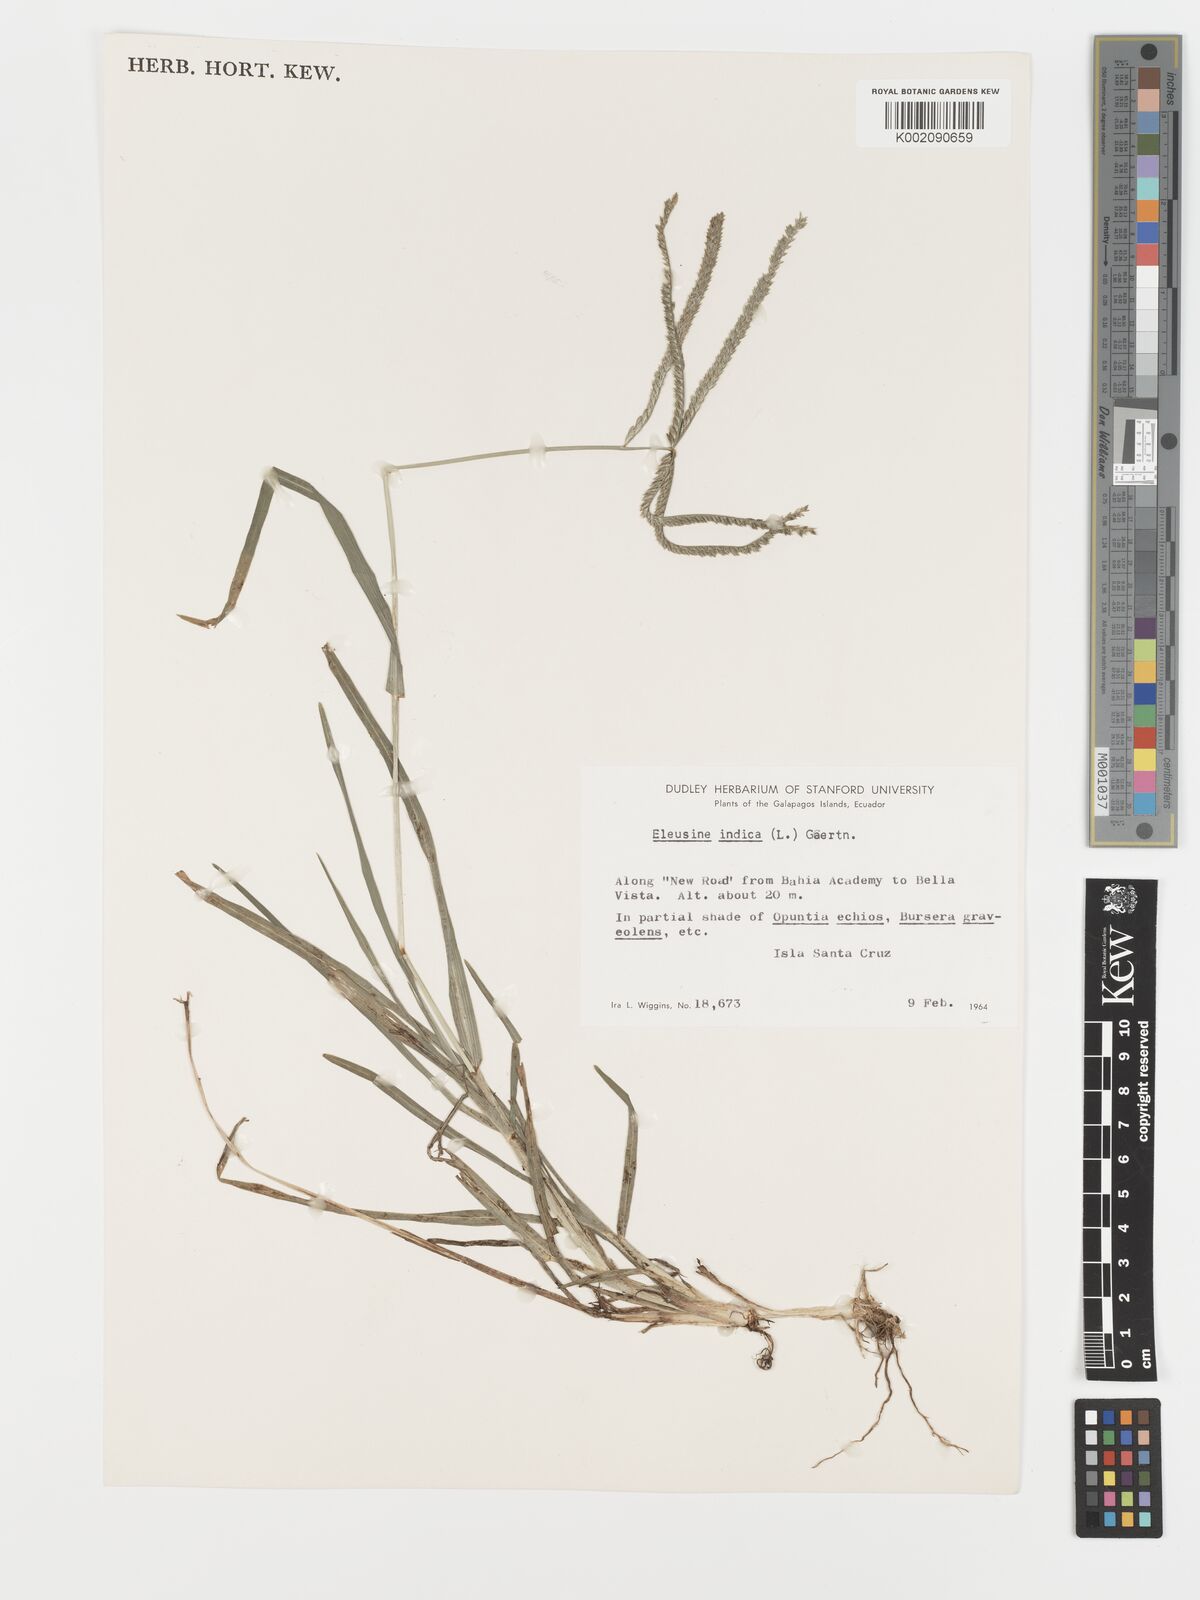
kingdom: Plantae
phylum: Tracheophyta
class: Liliopsida
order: Poales
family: Poaceae
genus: Eleusine
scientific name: Eleusine indica
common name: Yard-grass
